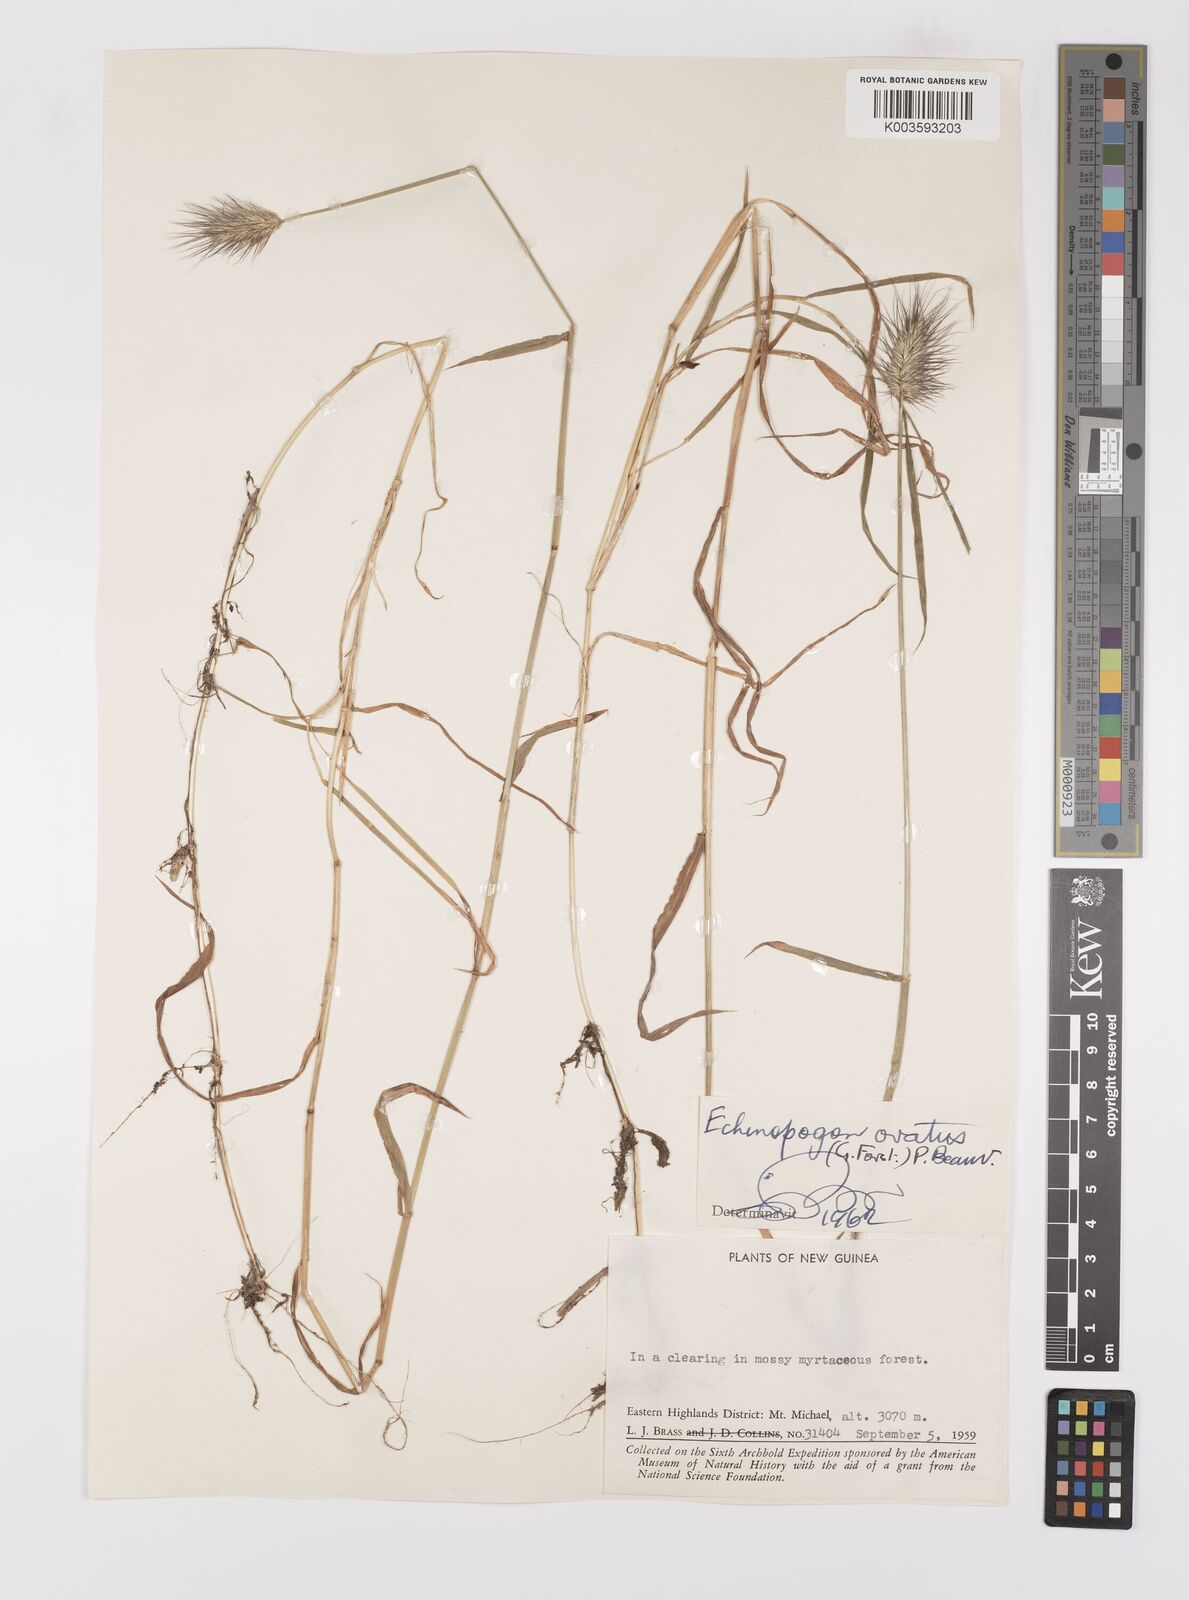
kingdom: Plantae
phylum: Tracheophyta
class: Liliopsida
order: Poales
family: Poaceae
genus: Echinopogon
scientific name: Echinopogon ovatus
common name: Hedgehog-grass
